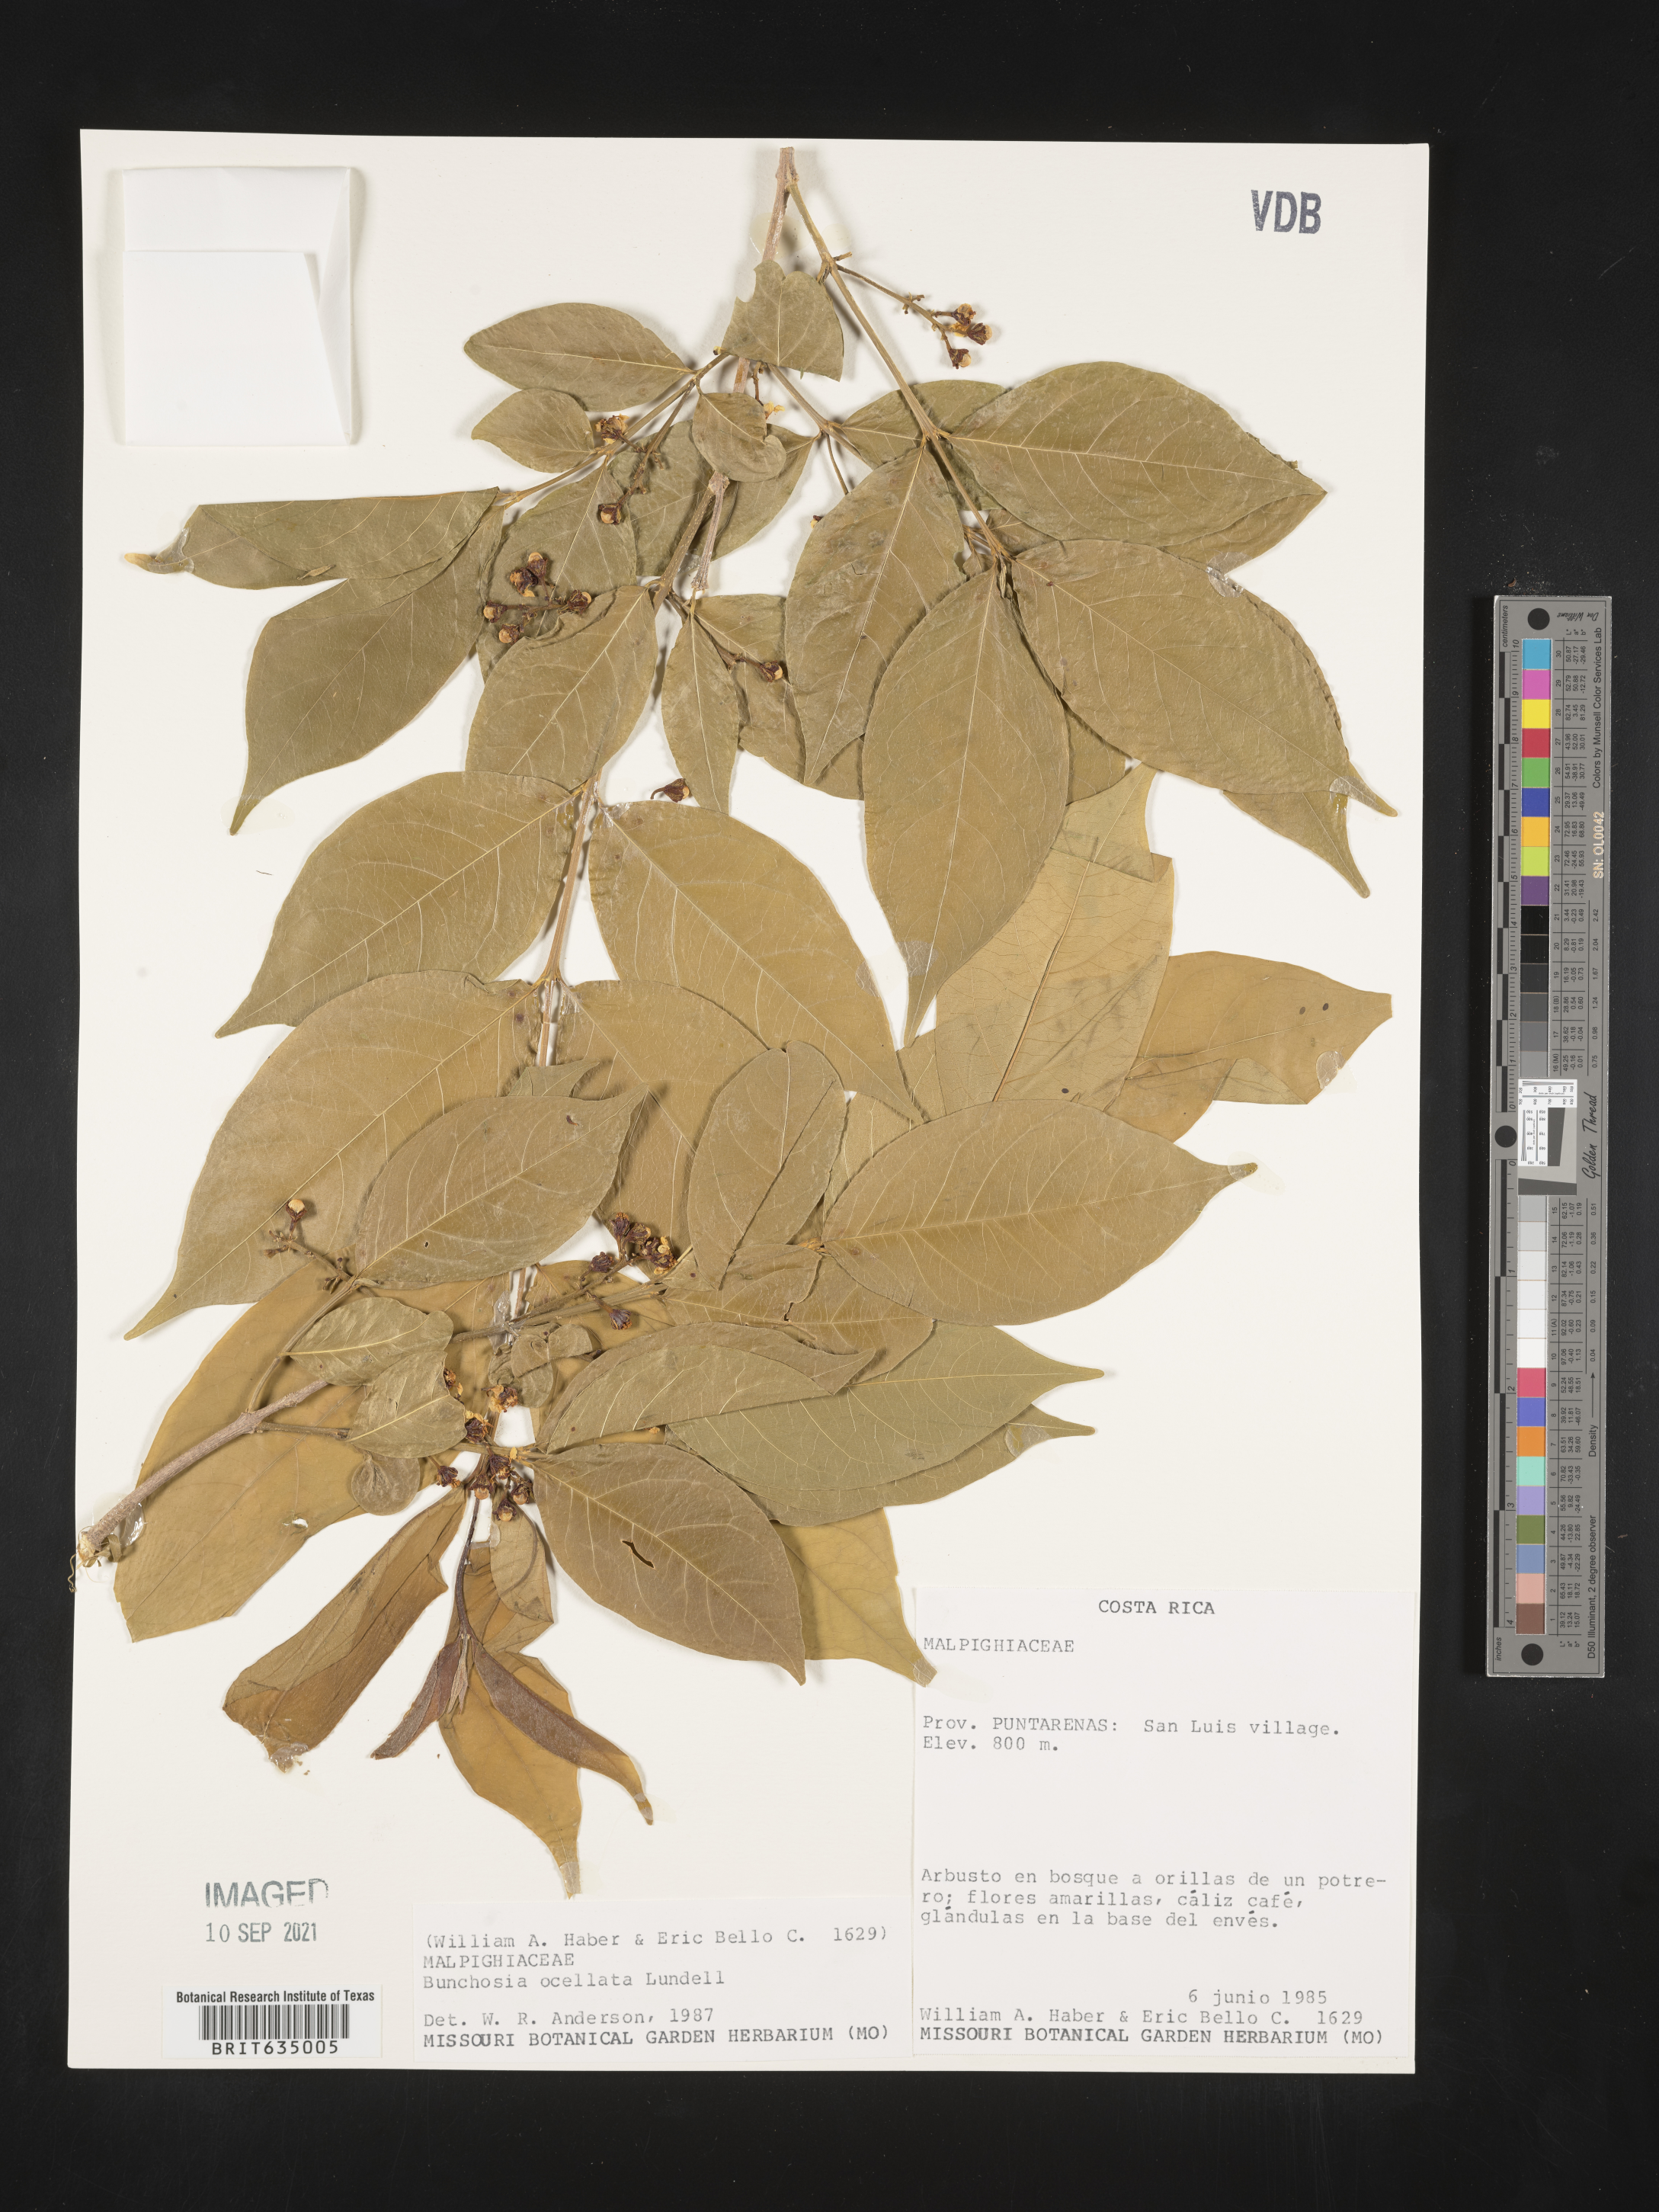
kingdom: Plantae
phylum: Tracheophyta
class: Magnoliopsida
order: Malpighiales
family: Malpighiaceae
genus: Bunchosia
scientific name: Bunchosia
